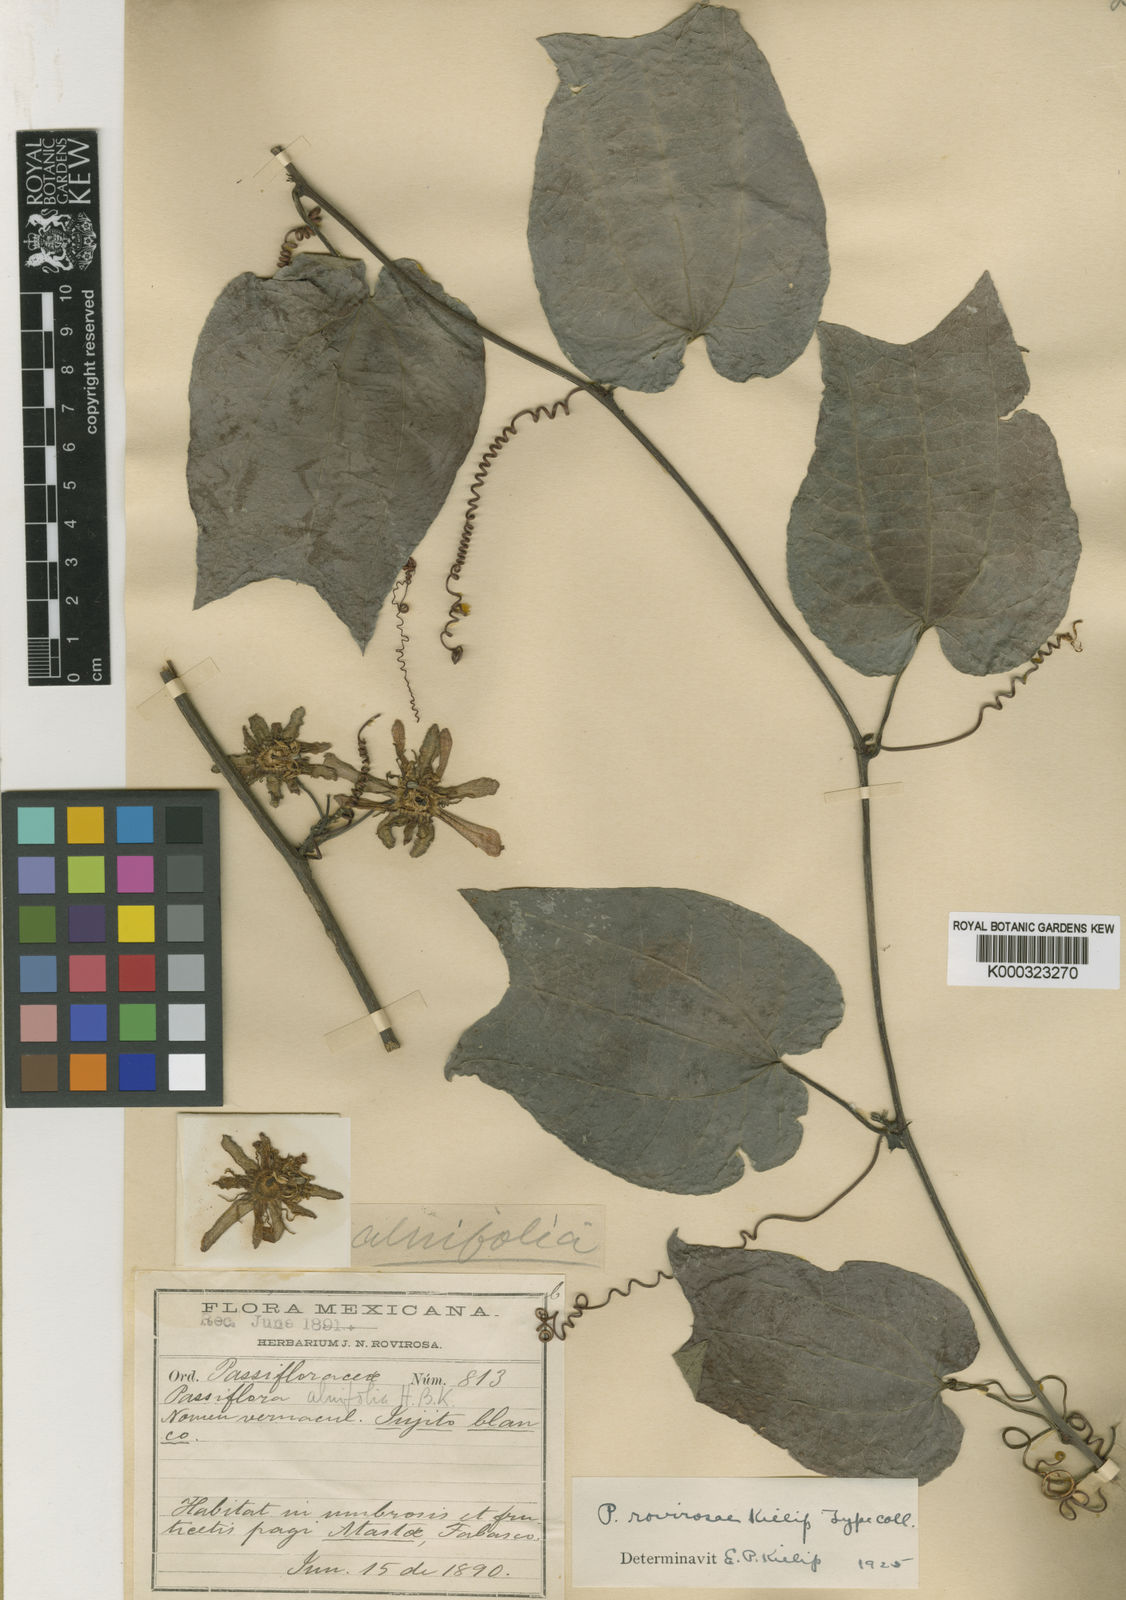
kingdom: Plantae
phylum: Tracheophyta
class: Magnoliopsida
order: Malpighiales
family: Passifloraceae
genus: Passiflora
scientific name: Passiflora rovirosae
